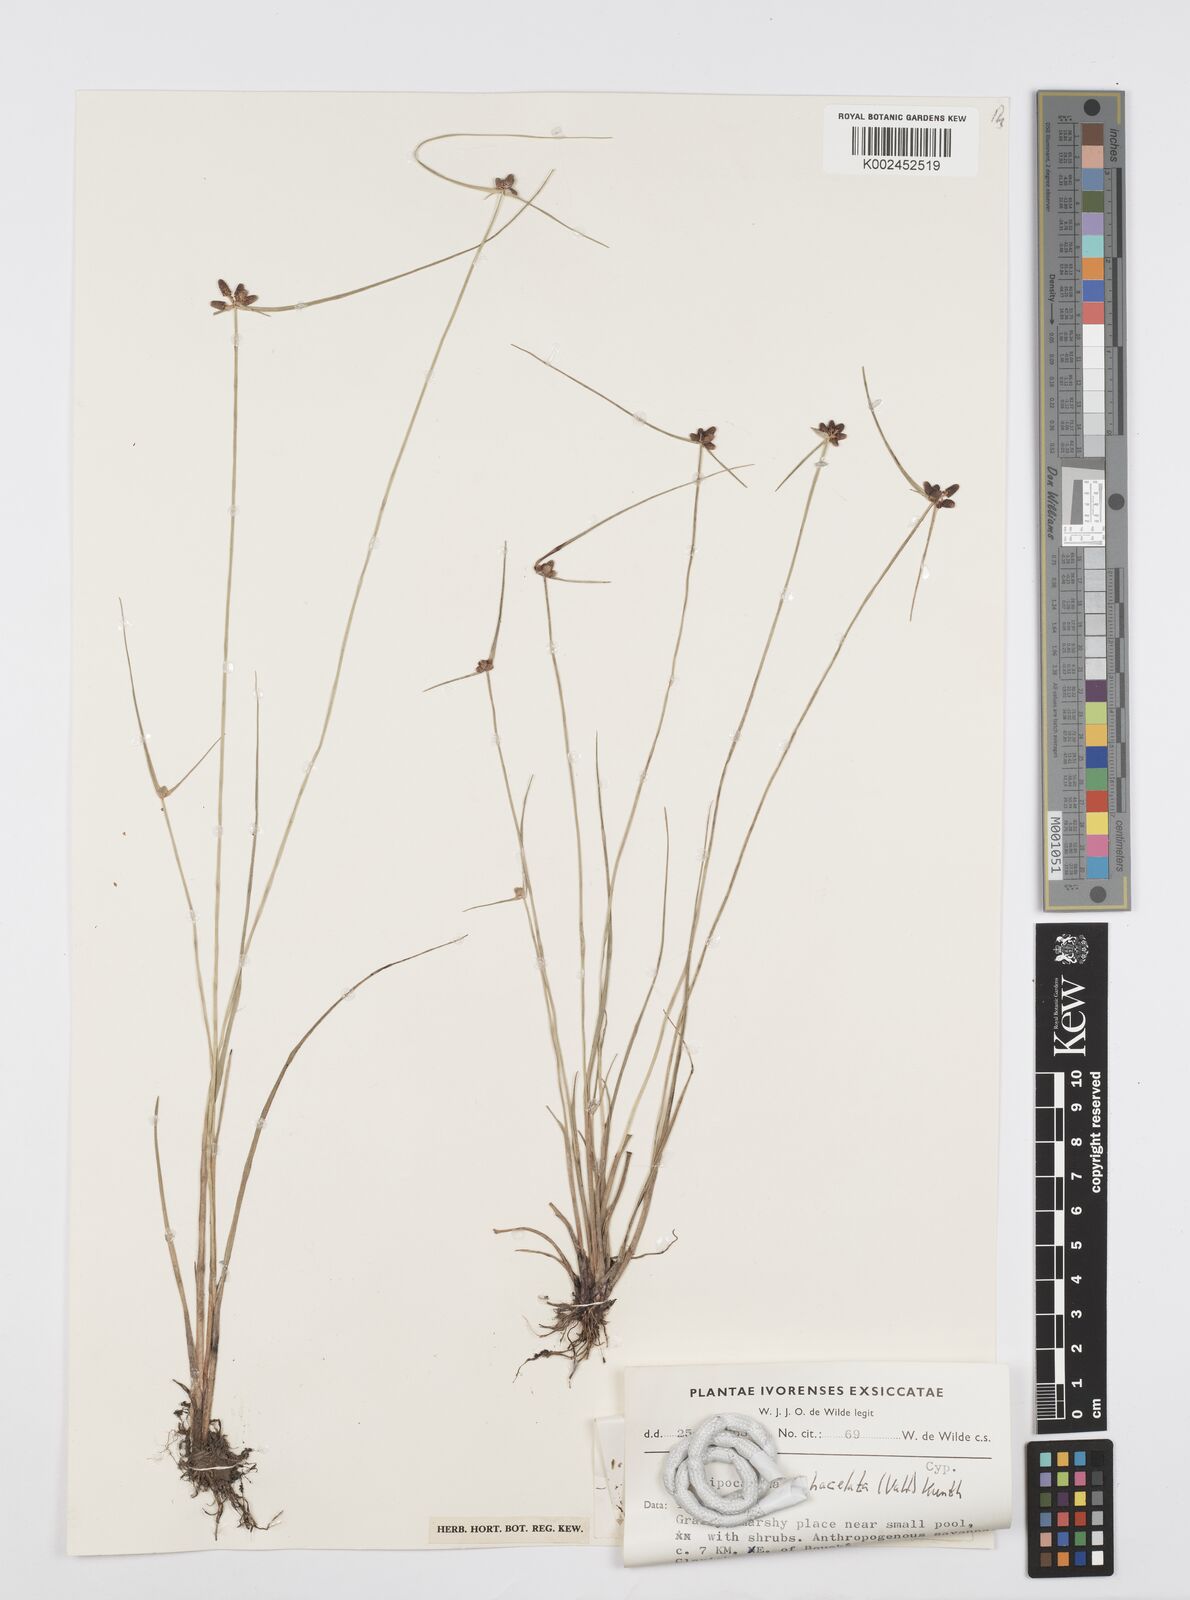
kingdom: Plantae
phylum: Tracheophyta
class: Liliopsida
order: Poales
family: Cyperaceae
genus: Cyperus
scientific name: Cyperus filiformis
